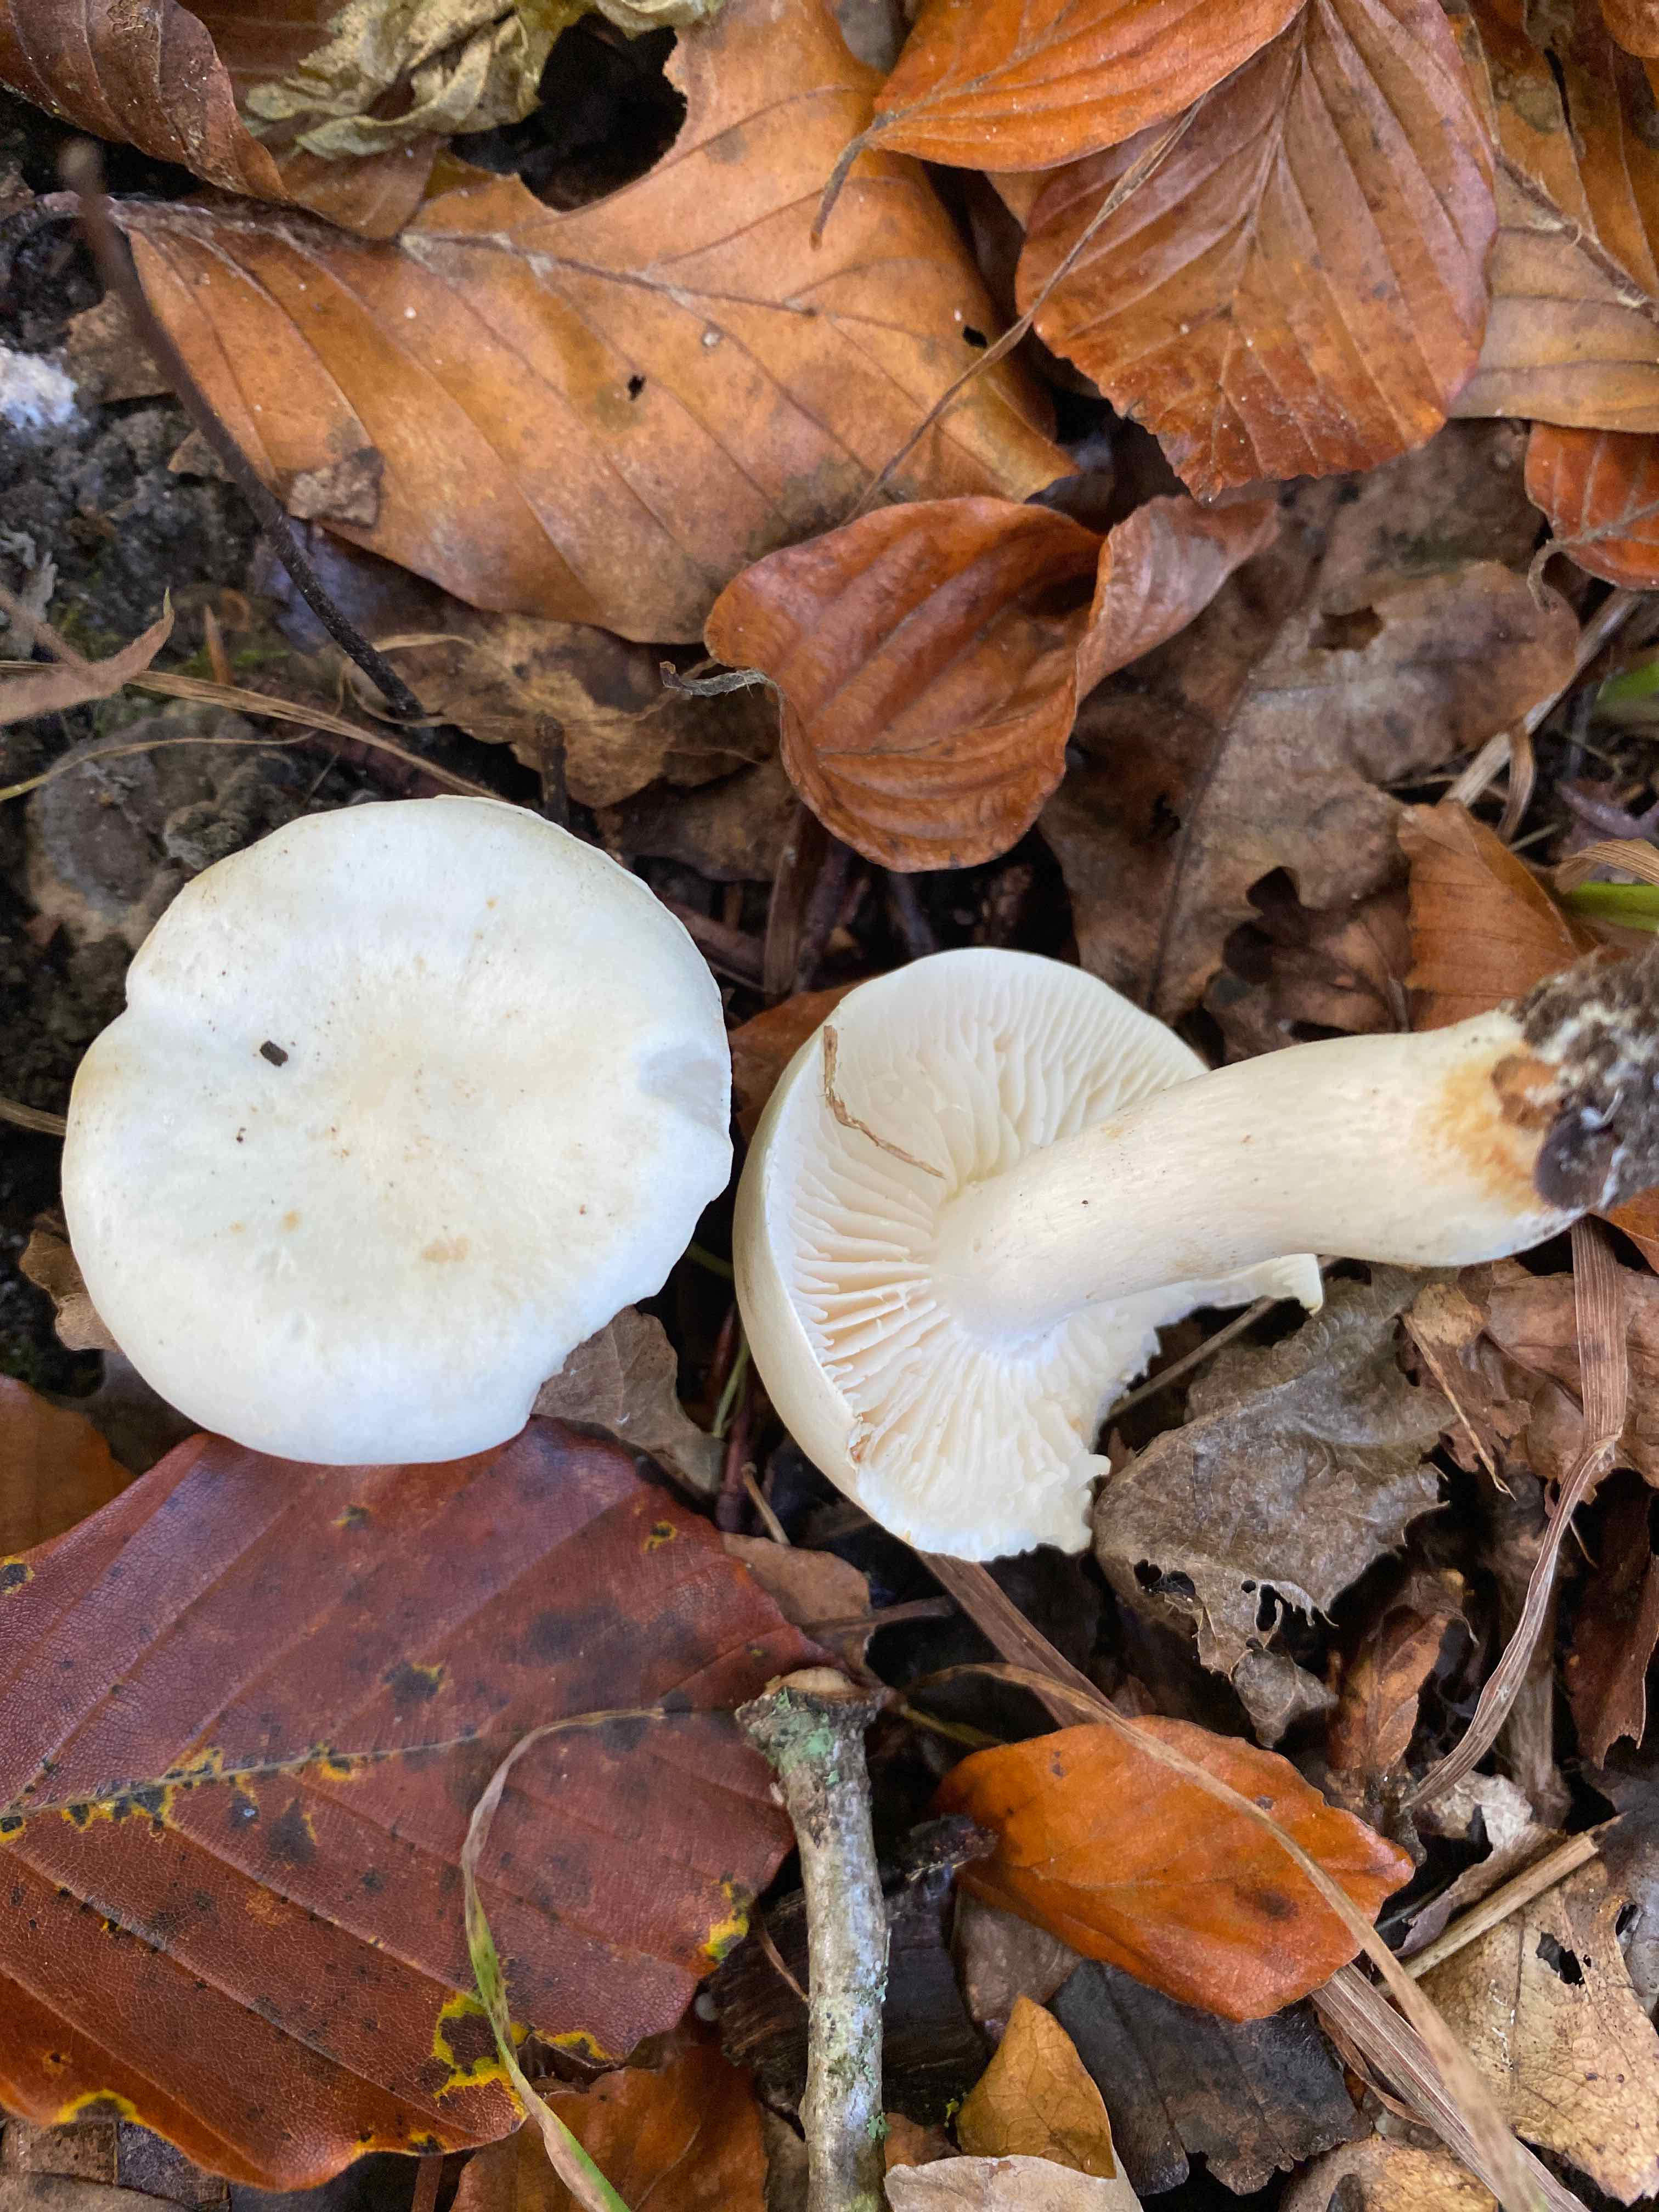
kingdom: Fungi
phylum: Basidiomycota
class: Agaricomycetes
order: Agaricales
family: Tricholomataceae
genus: Tricholoma
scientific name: Tricholoma lascivum
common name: stinkende ridderhat
